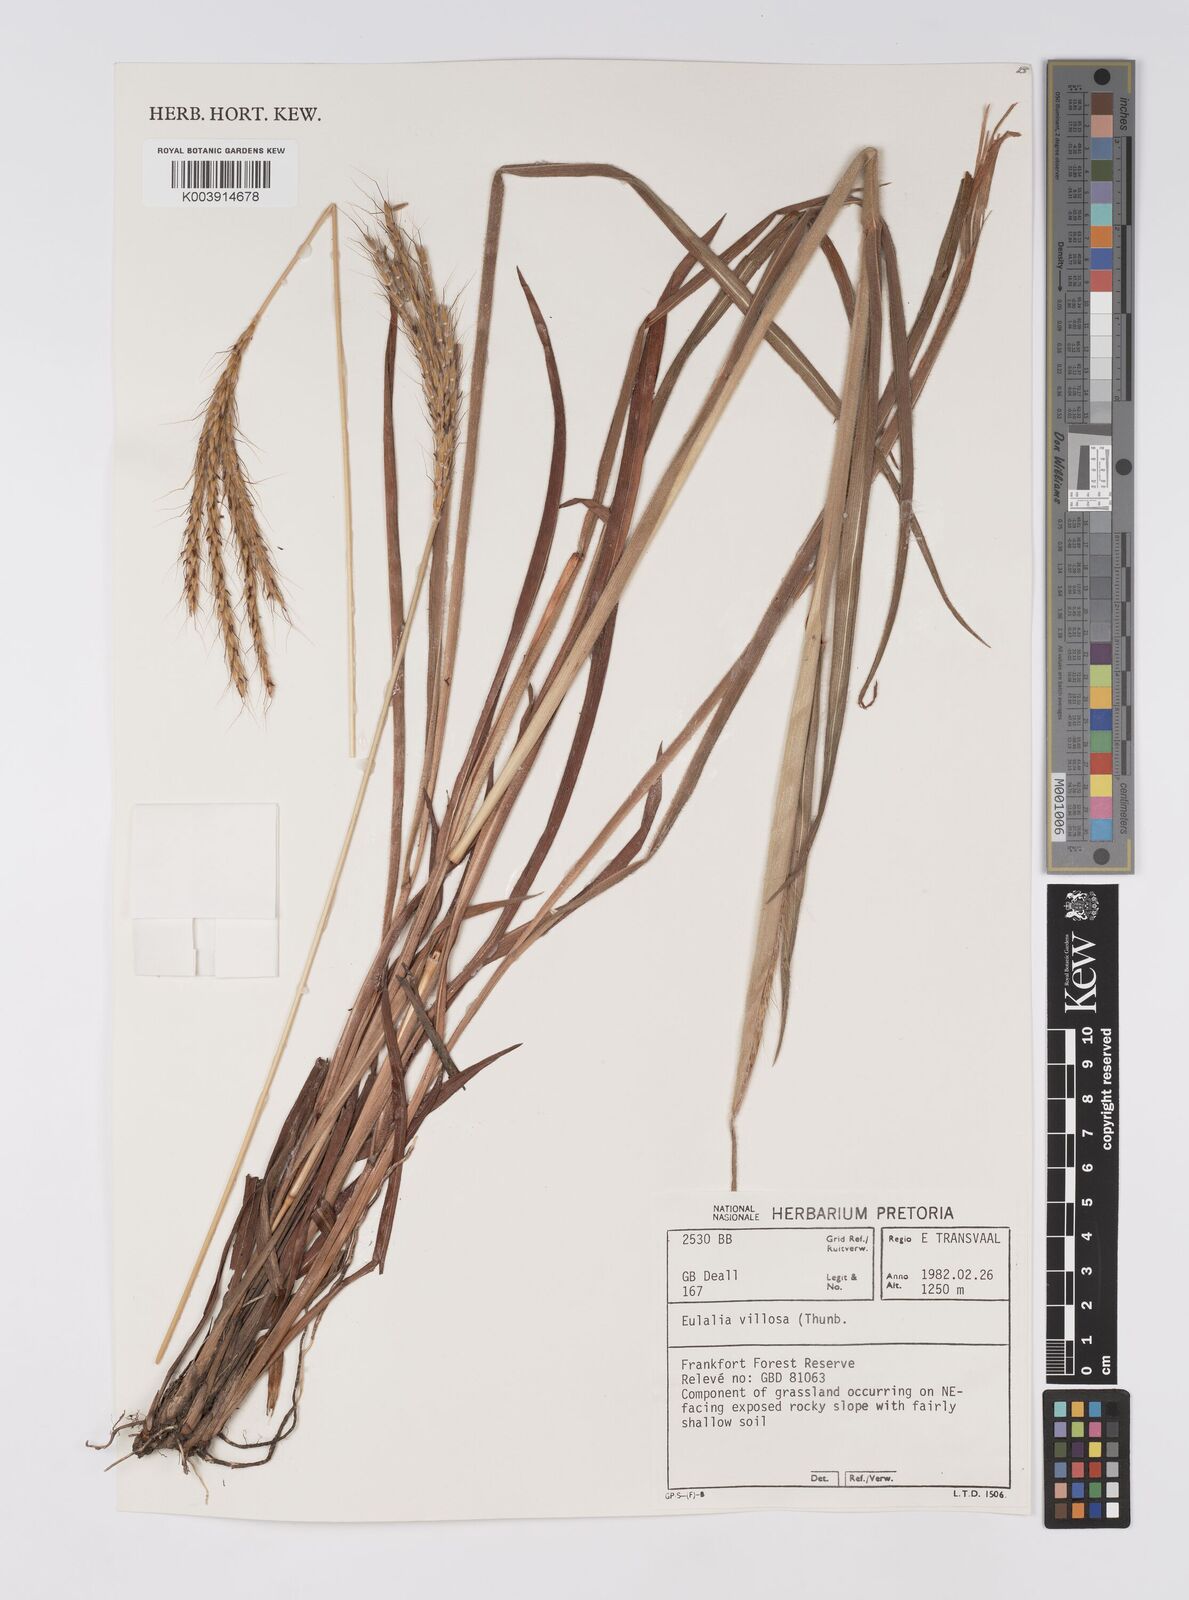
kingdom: Plantae
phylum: Tracheophyta
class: Liliopsida
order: Poales
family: Poaceae
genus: Eulalia
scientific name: Eulalia villosa
